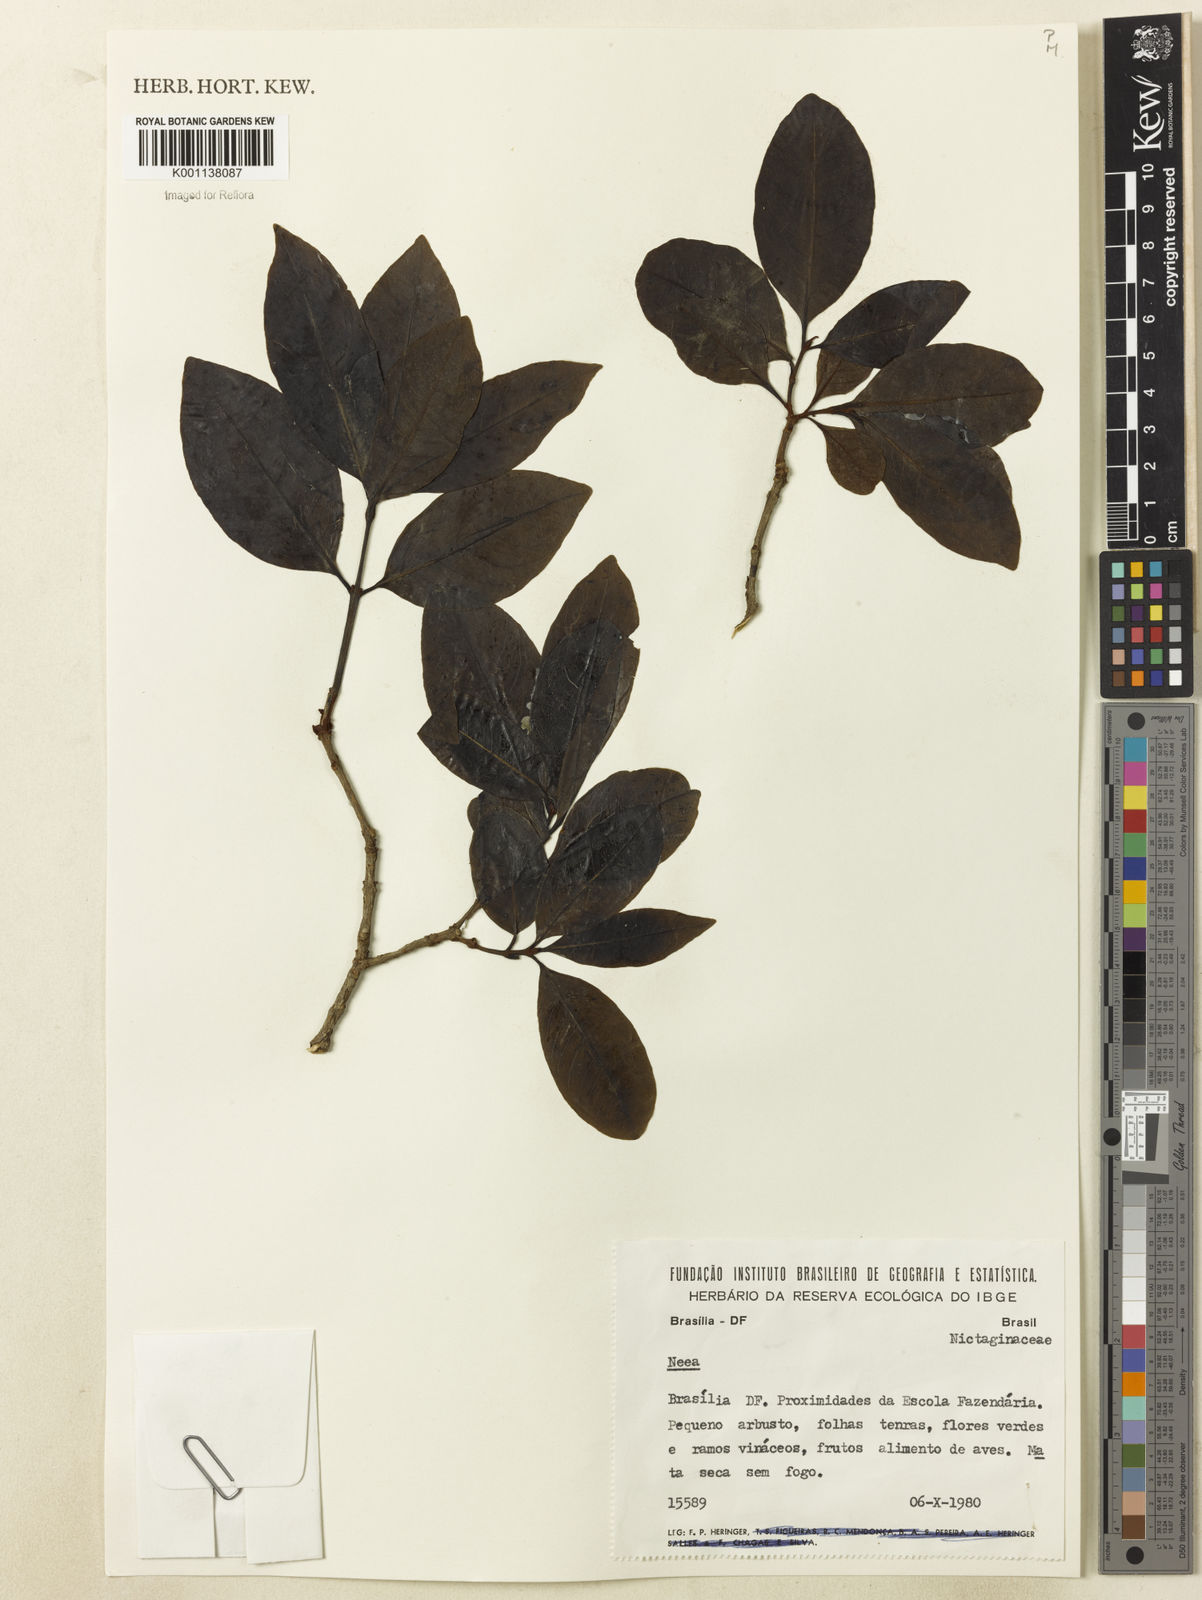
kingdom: Plantae
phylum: Tracheophyta
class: Magnoliopsida
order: Caryophyllales
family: Nyctaginaceae
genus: Neea
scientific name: Neea
